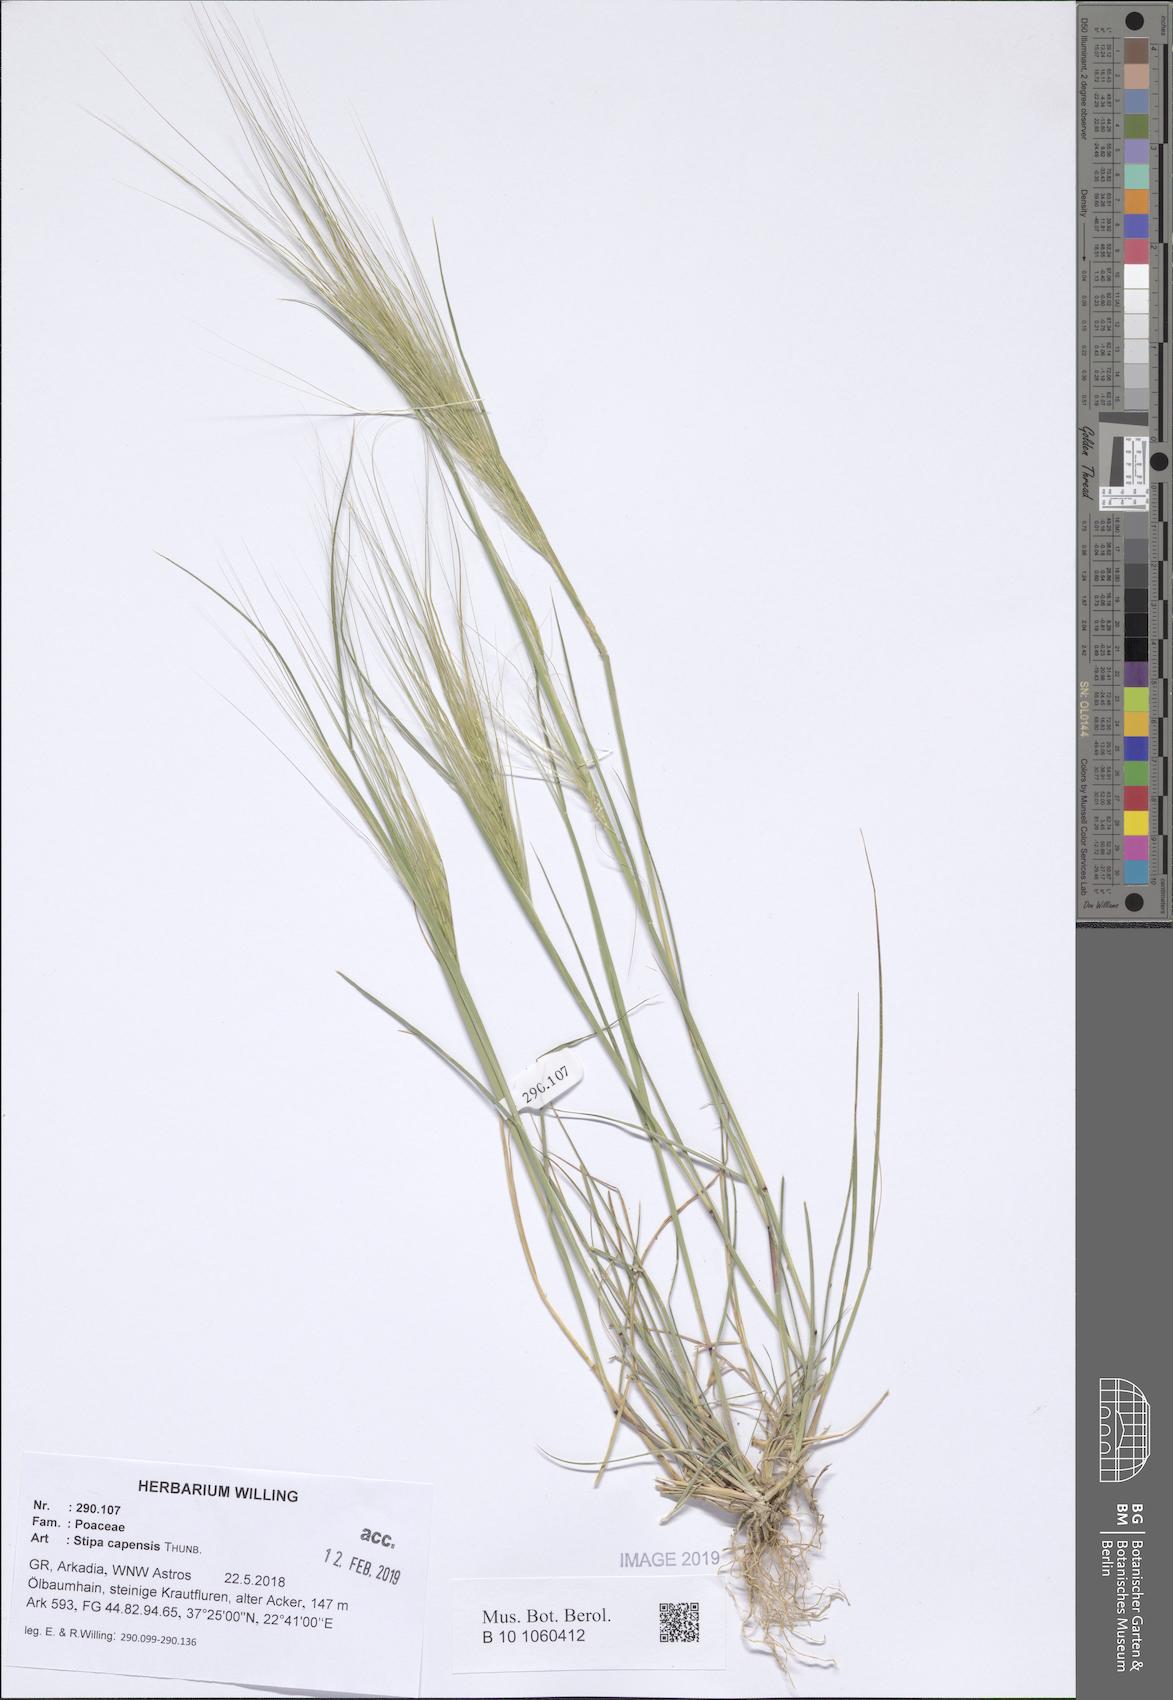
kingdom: Plantae
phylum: Tracheophyta
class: Liliopsida
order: Poales
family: Poaceae
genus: Stipellula
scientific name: Stipellula capensis
